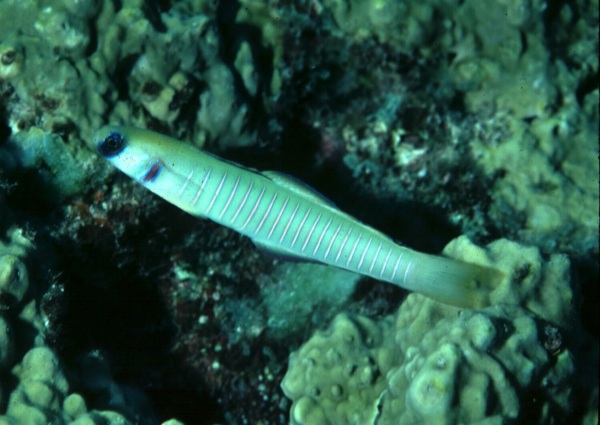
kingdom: Animalia
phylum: Chordata
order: Perciformes
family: Microdesmidae
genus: Ptereleotris
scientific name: Ptereleotris zebra
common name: Chinese zebra goby
